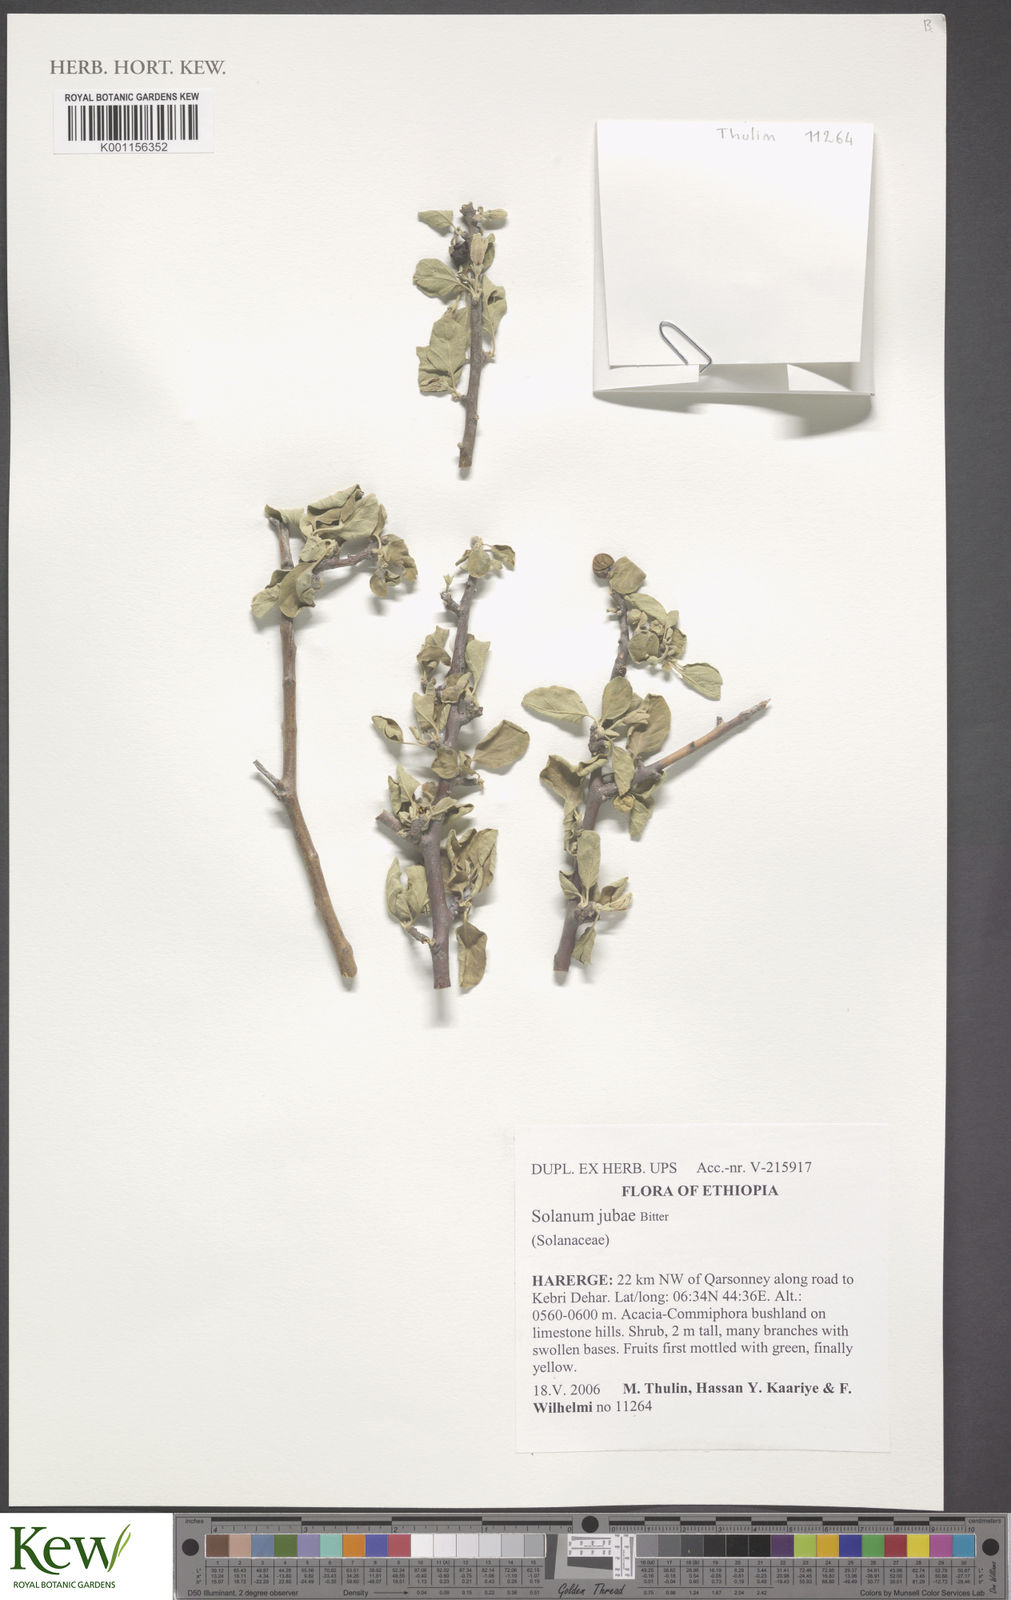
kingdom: Plantae
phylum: Tracheophyta
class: Magnoliopsida
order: Solanales
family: Solanaceae
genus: Solanum
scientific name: Solanum jubae
